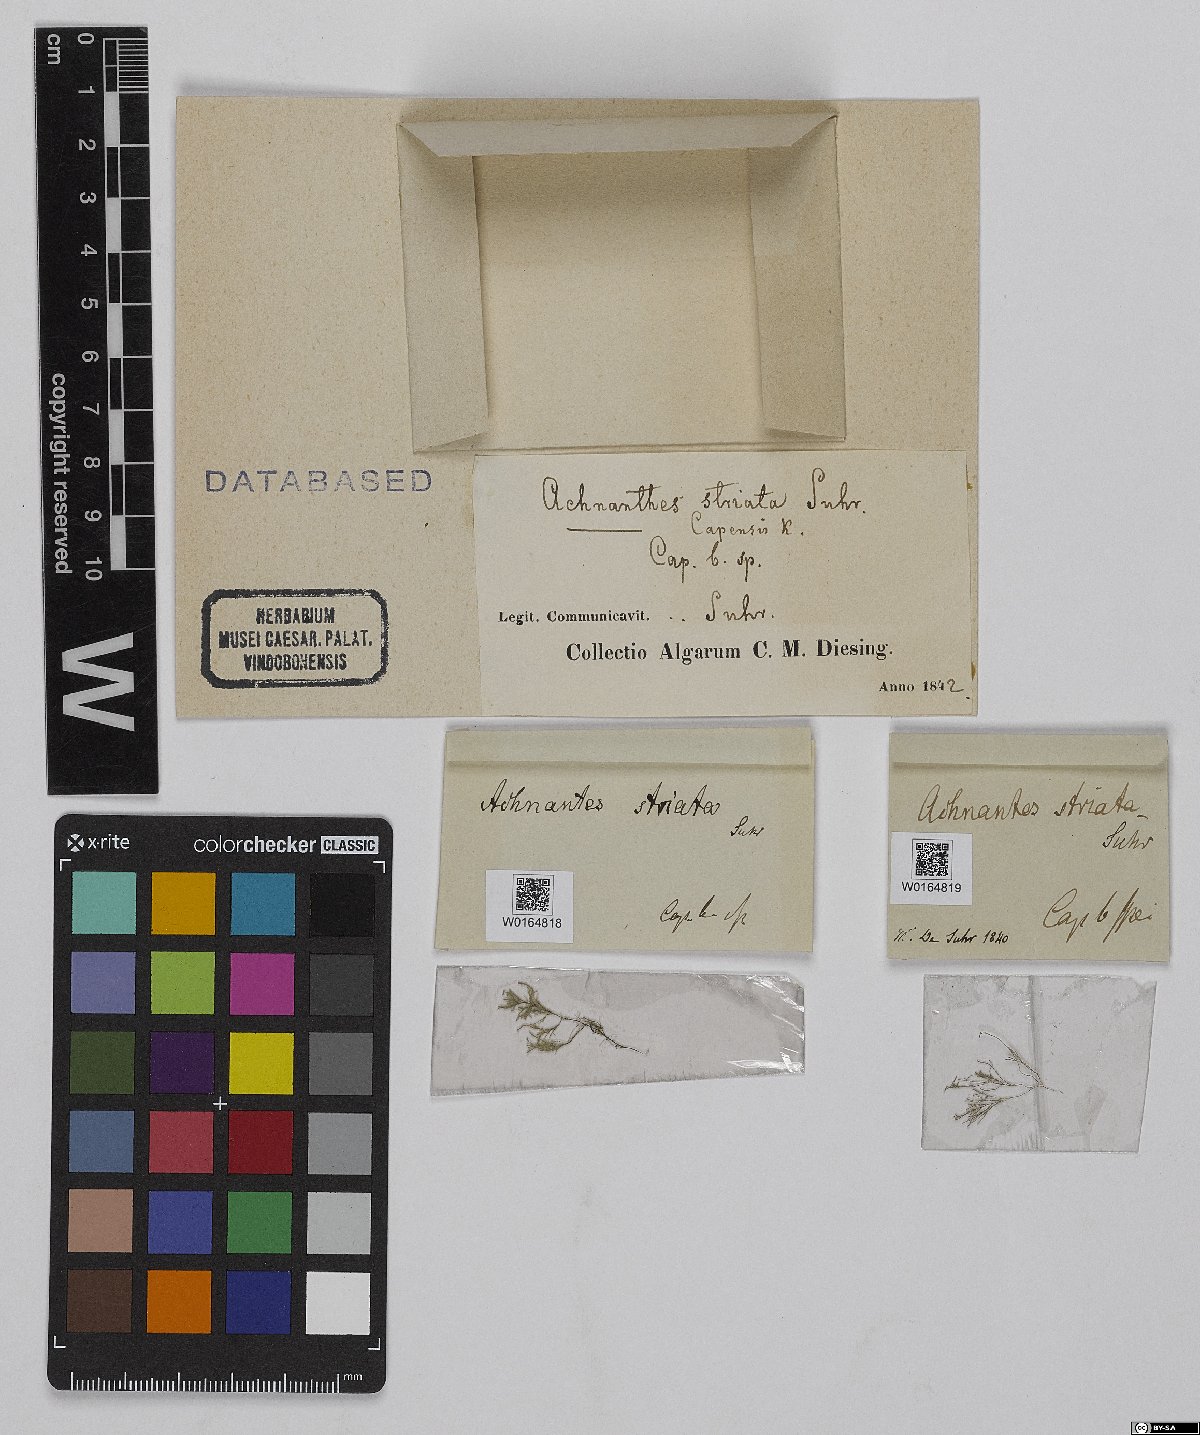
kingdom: Chromista
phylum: Ochrophyta
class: Bacillariophyceae
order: Achnanthales
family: Achnanthaceae
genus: Achnanthes
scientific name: Achnanthes capensis
